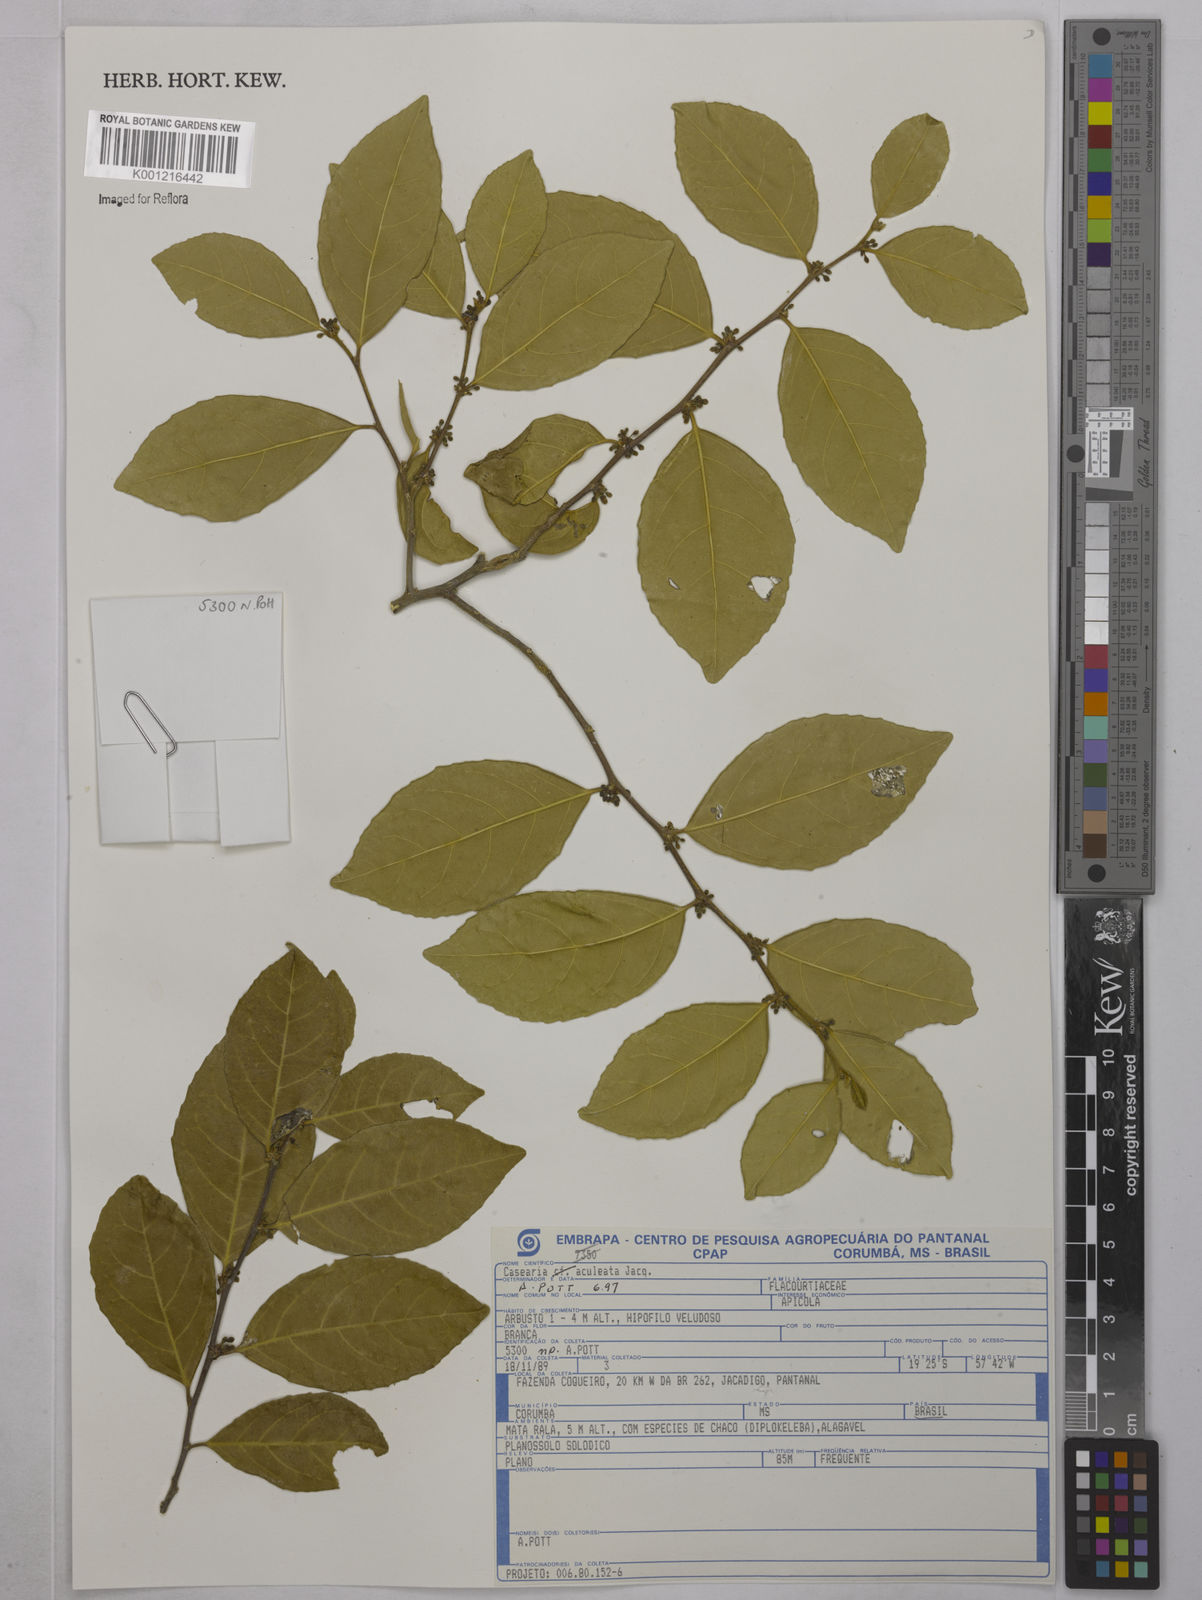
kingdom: Plantae
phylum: Tracheophyta
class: Magnoliopsida
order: Malpighiales
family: Salicaceae
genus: Casearia
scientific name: Casearia aculeata
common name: Cockspur
